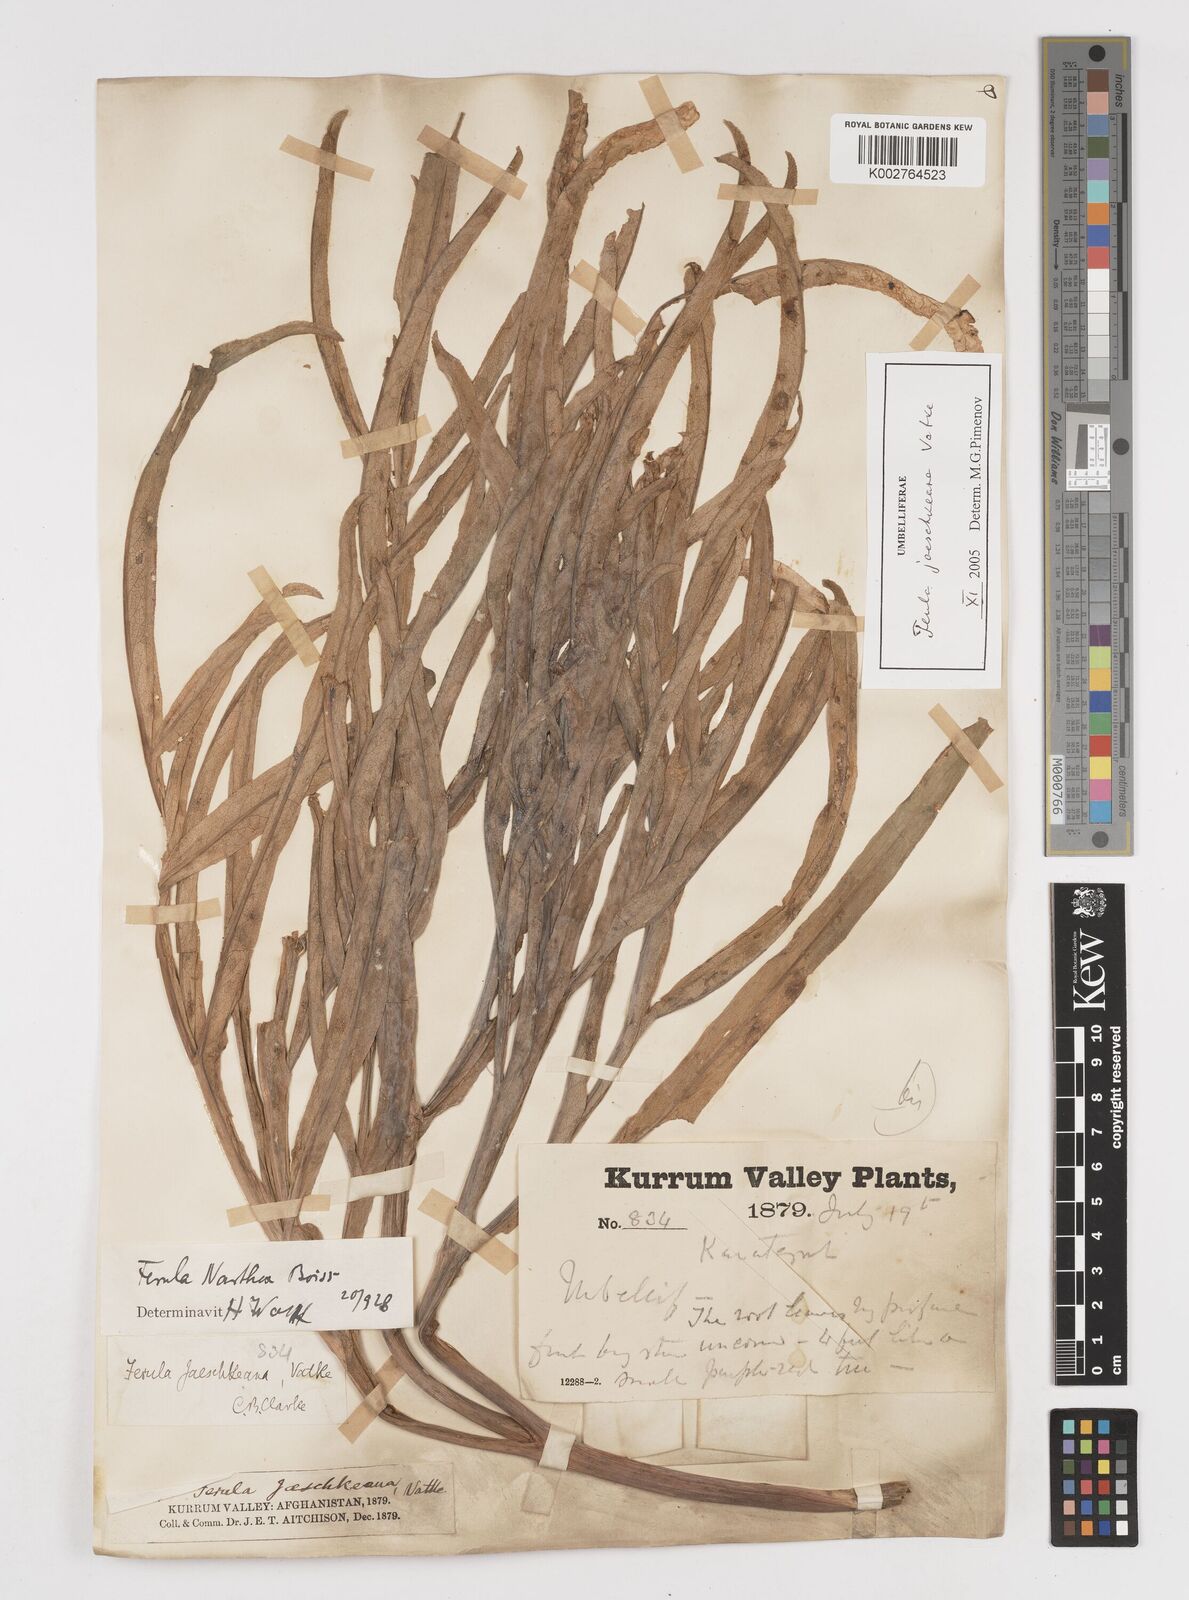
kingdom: Plantae
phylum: Tracheophyta
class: Magnoliopsida
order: Apiales
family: Apiaceae
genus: Ferula
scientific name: Ferula jaeschkeana
